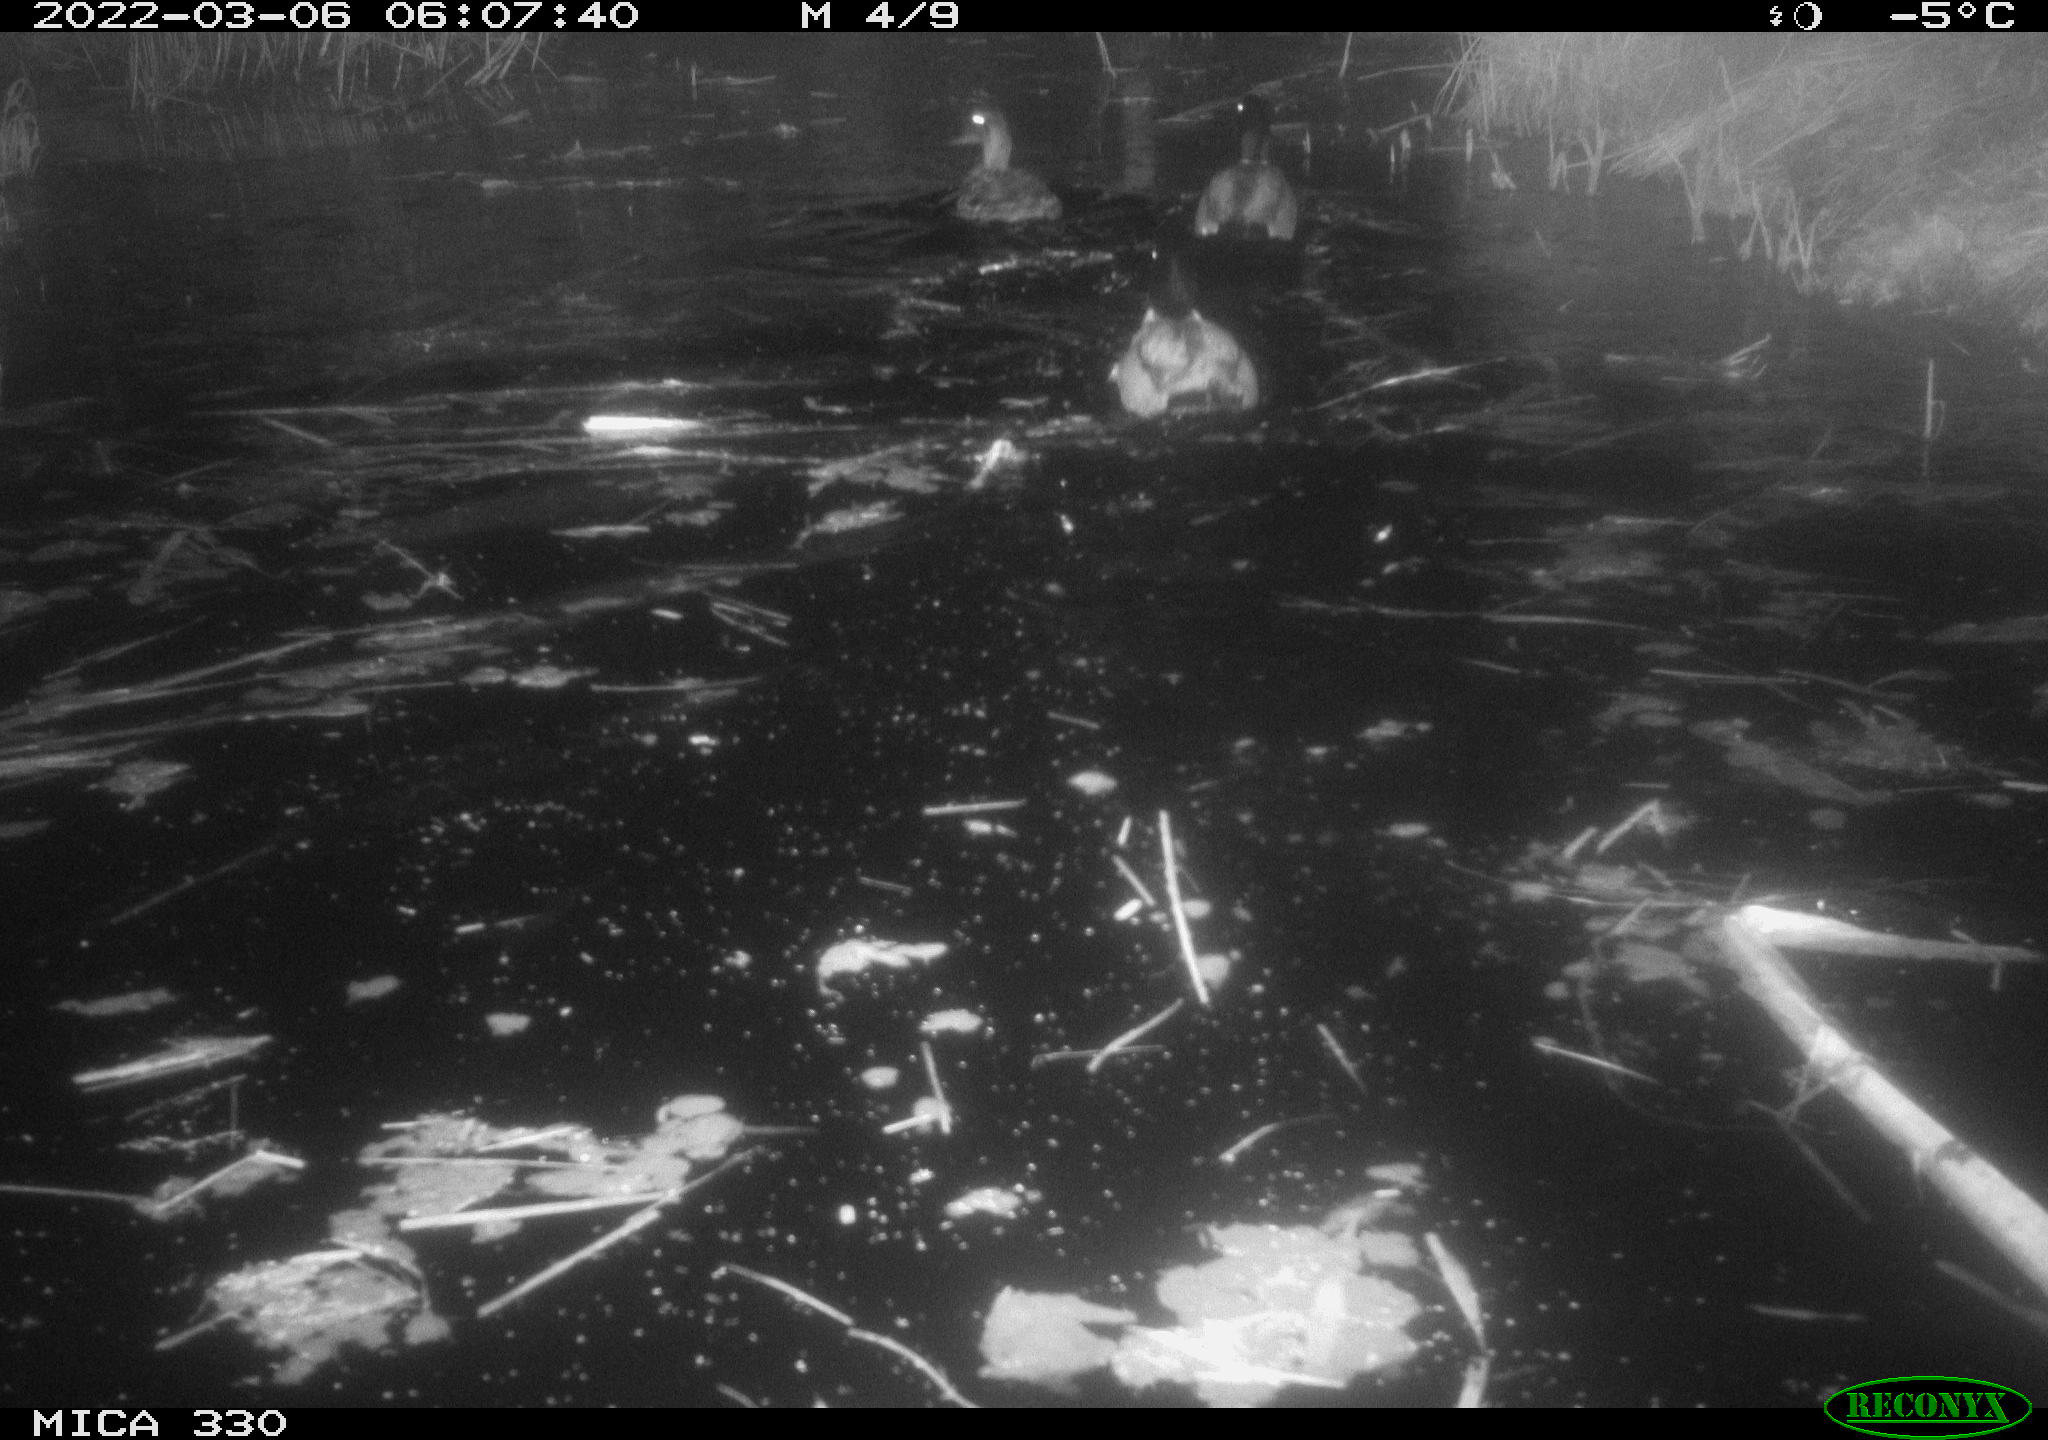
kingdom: Animalia
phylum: Chordata
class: Aves
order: Anseriformes
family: Anatidae
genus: Anas
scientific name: Anas platyrhynchos
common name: Mallard
